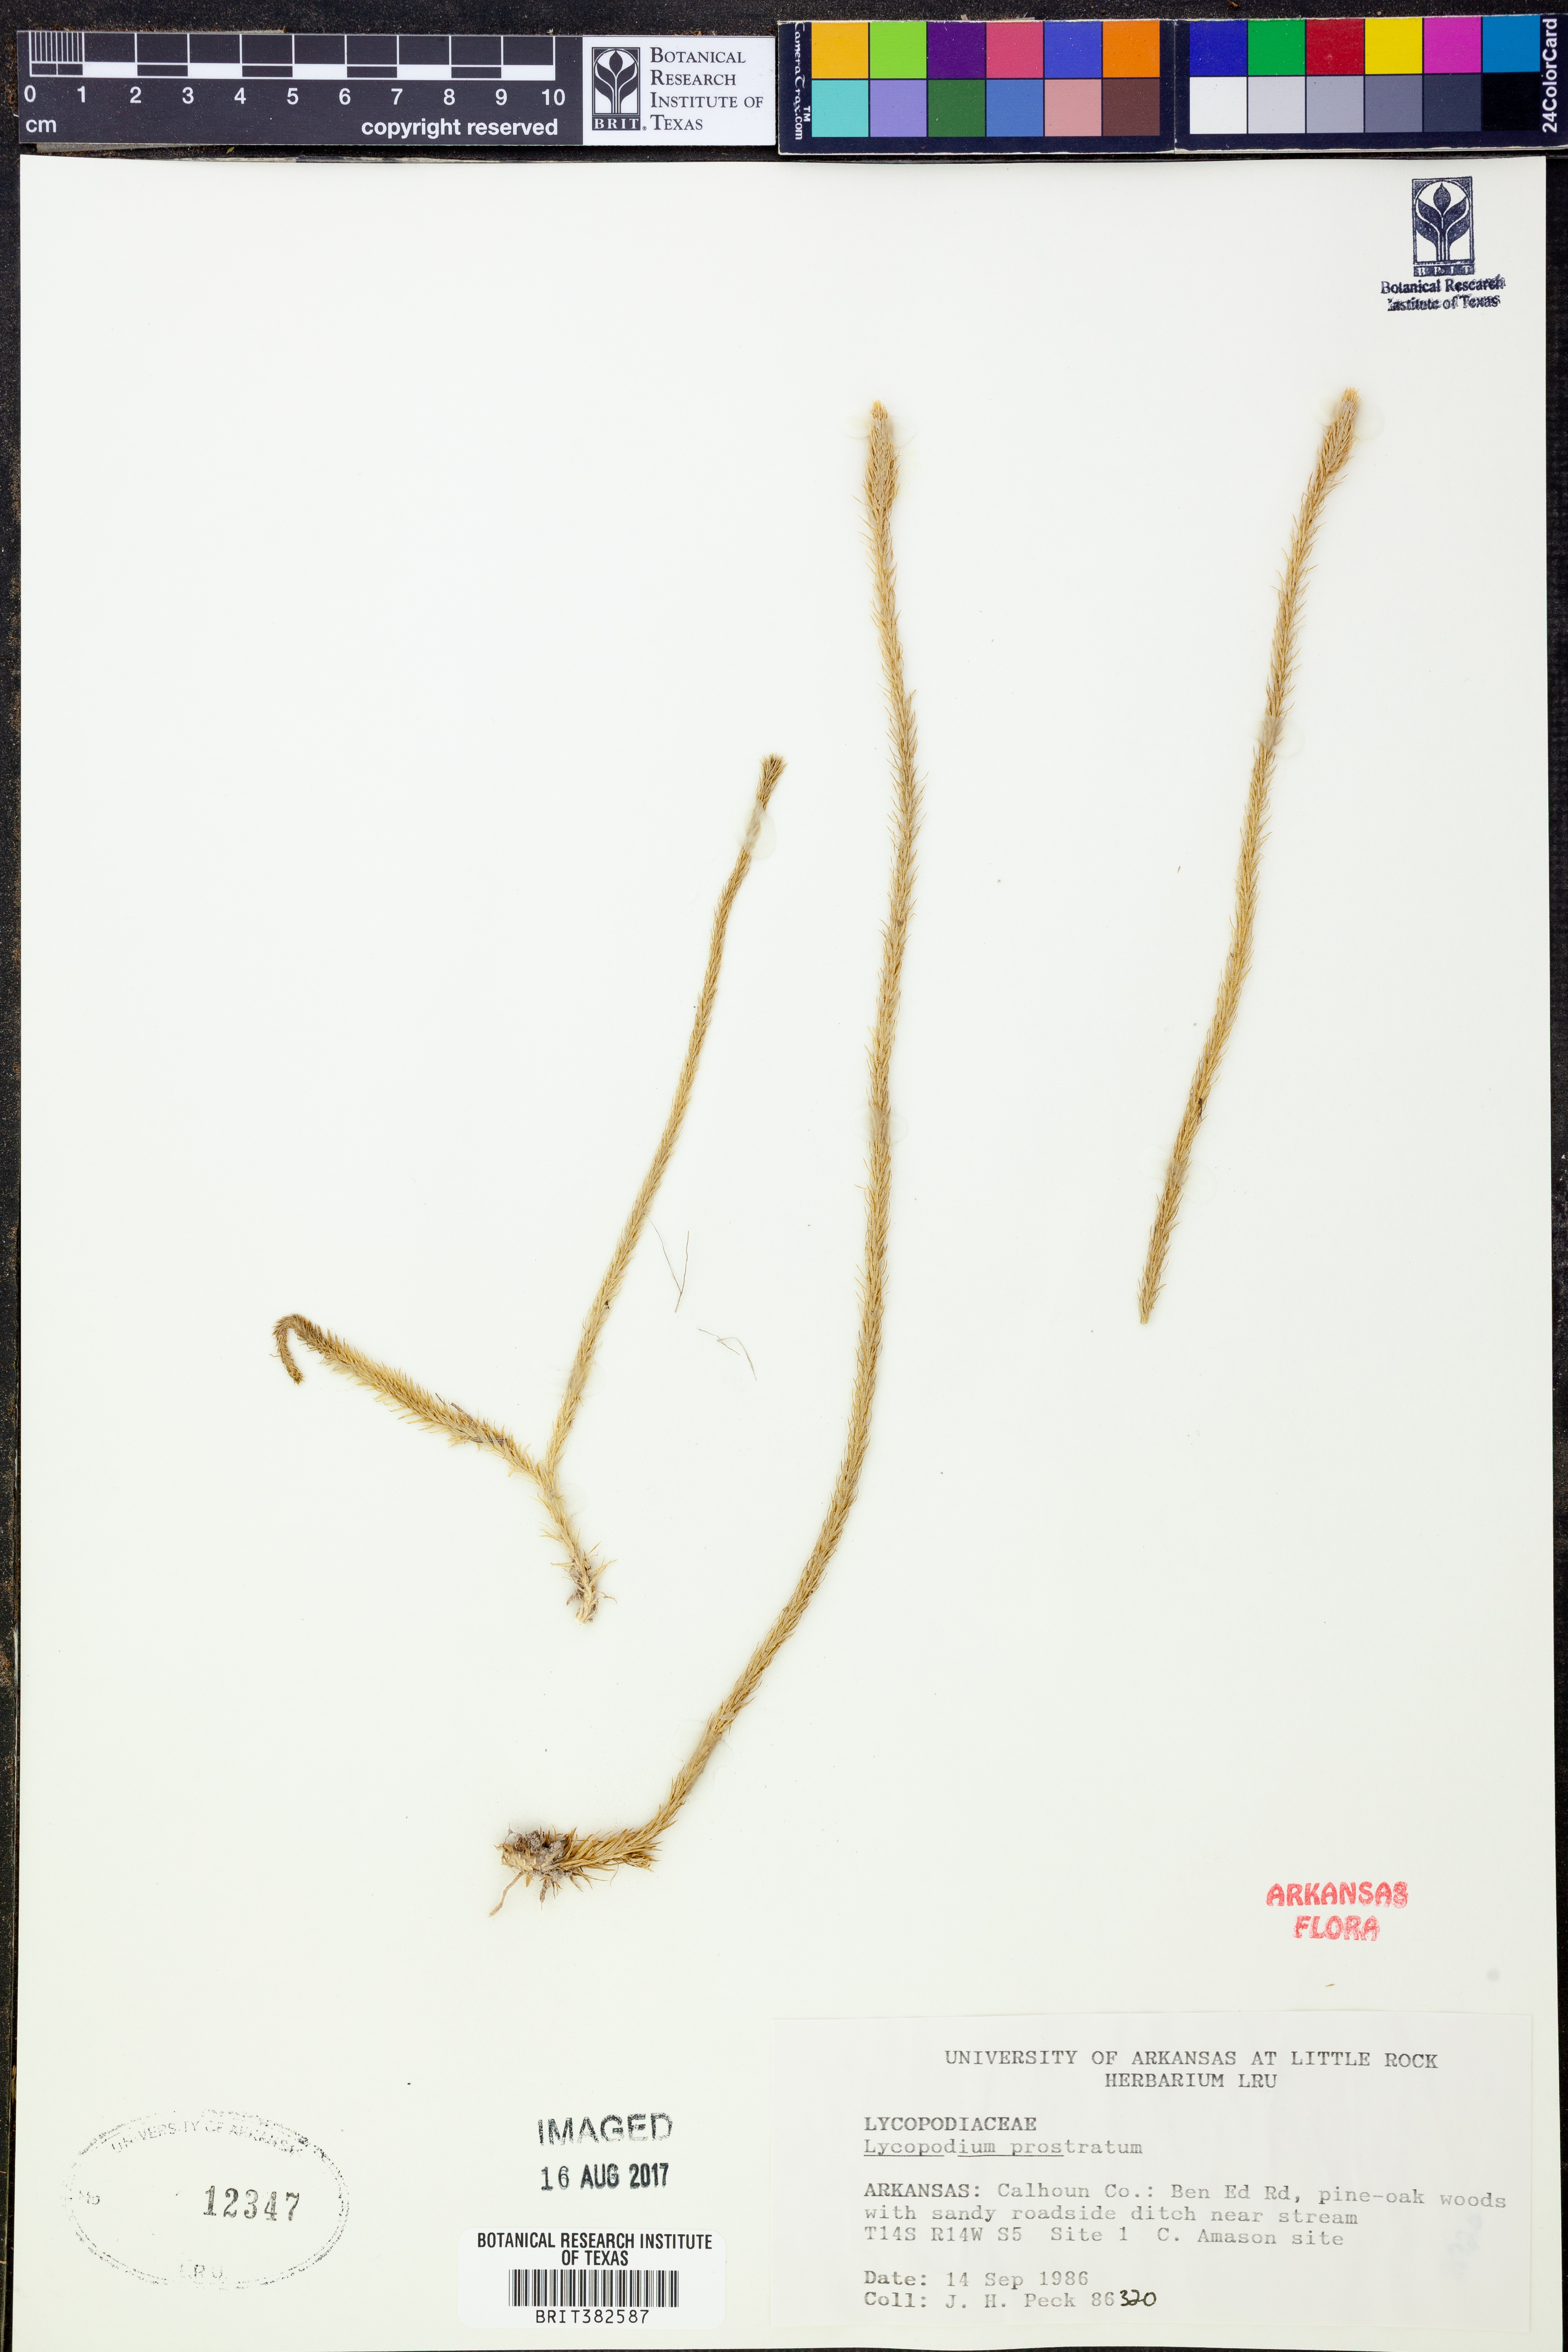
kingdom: Plantae
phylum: Tracheophyta
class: Lycopodiopsida
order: Lycopodiales
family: Lycopodiaceae
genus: Lycopodiella
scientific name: Lycopodiella prostrata
